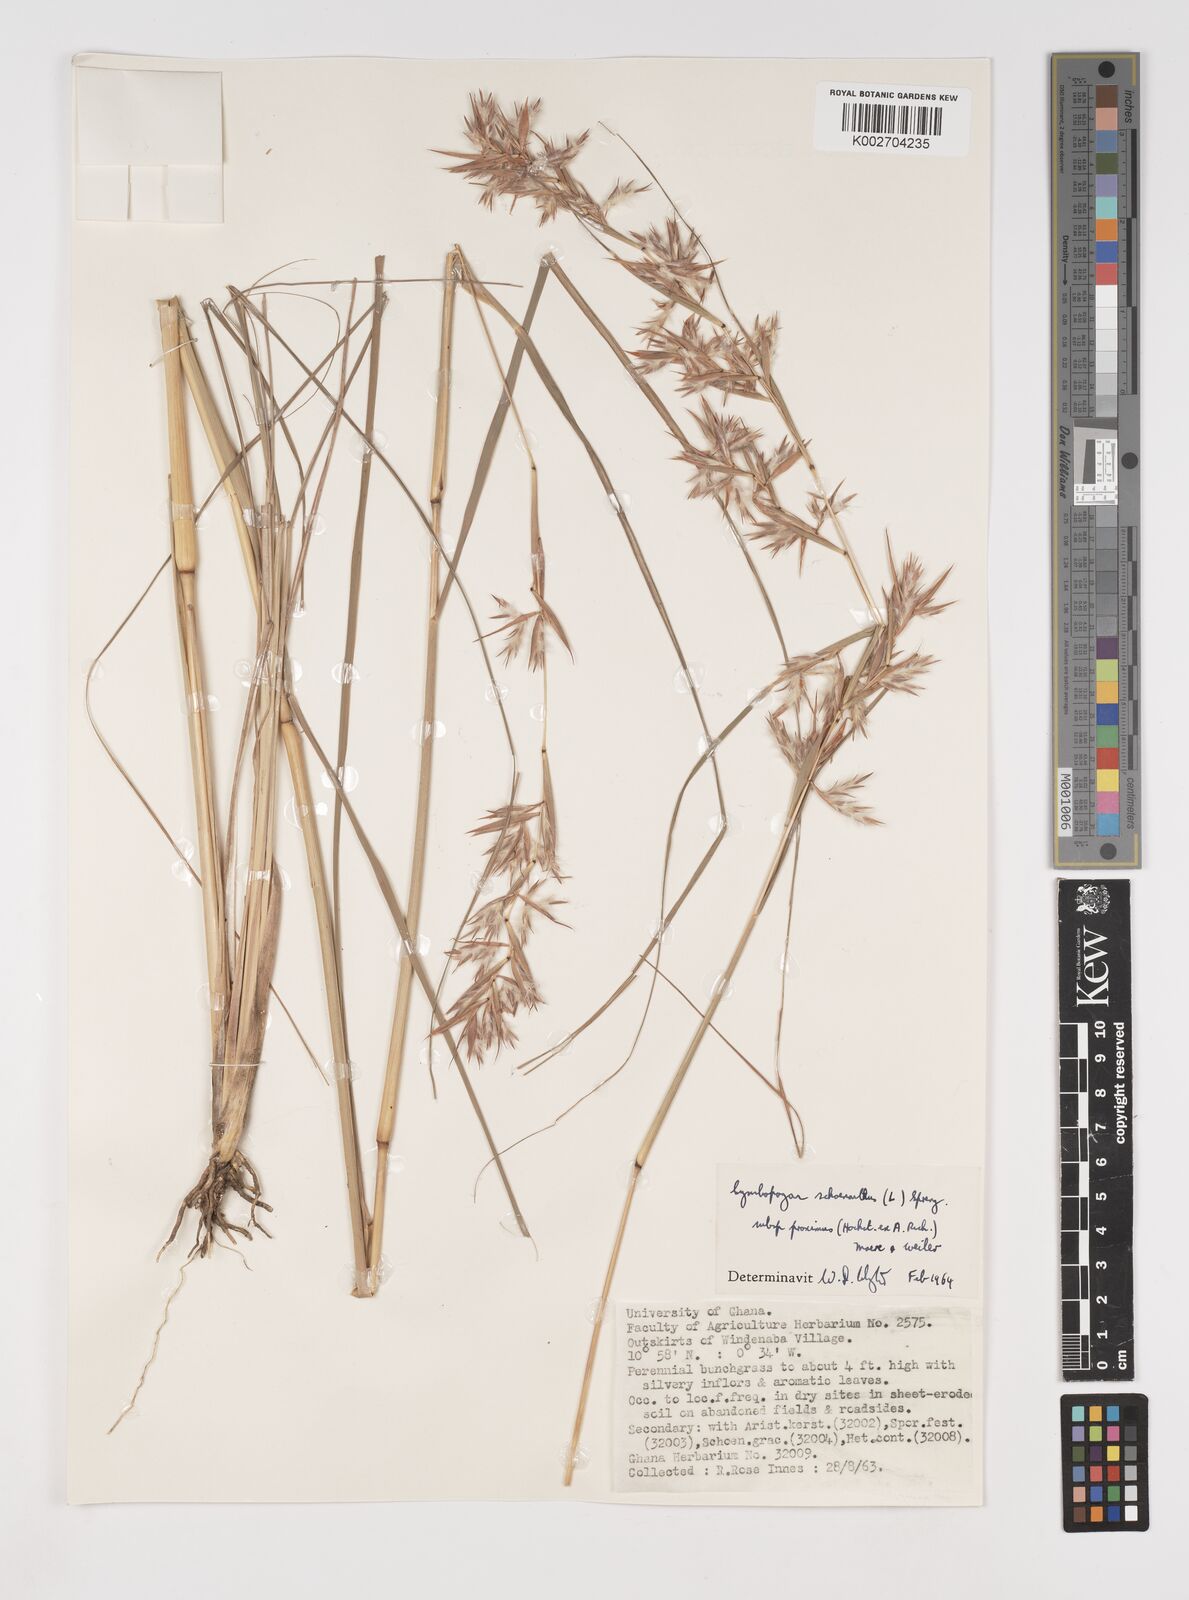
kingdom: Plantae
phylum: Tracheophyta
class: Liliopsida
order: Poales
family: Poaceae
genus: Cymbopogon
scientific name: Cymbopogon schoenanthus
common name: Geranium grass
